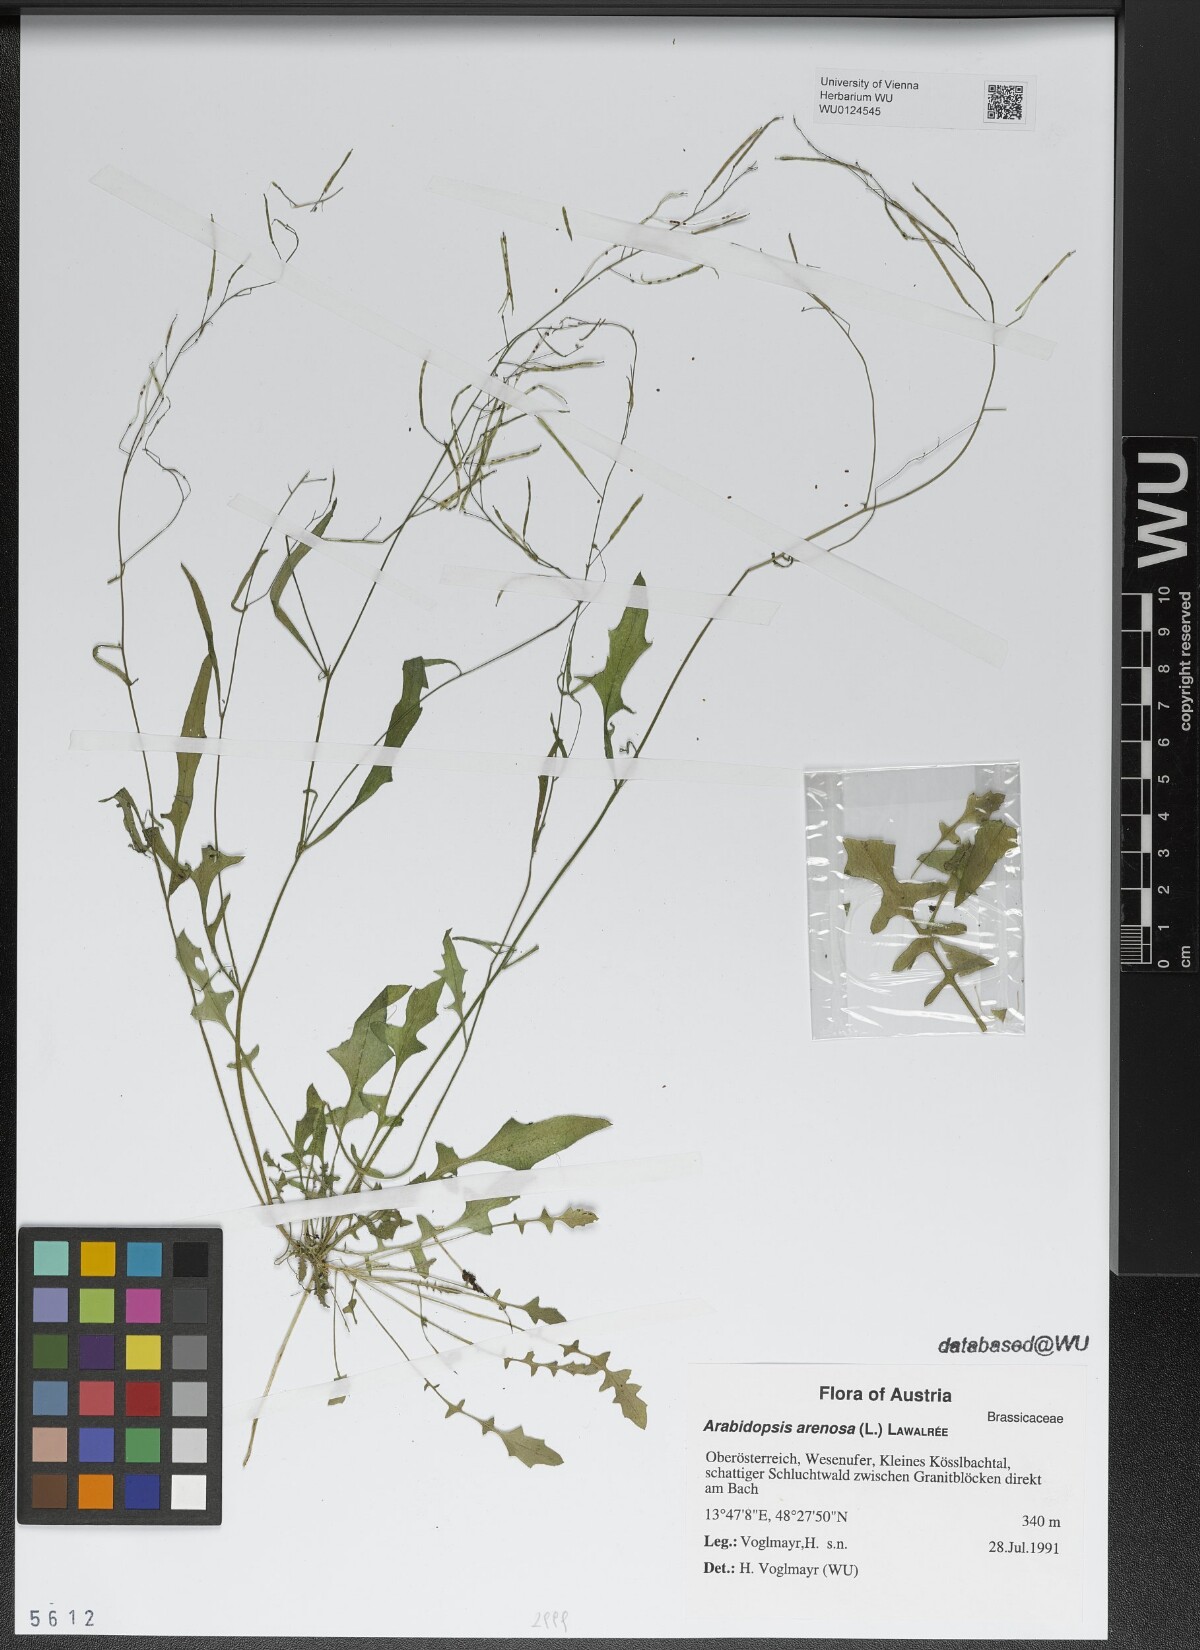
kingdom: Plantae
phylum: Tracheophyta
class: Magnoliopsida
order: Brassicales
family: Brassicaceae
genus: Arabidopsis
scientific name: Arabidopsis arenosa
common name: Sand rock-cress
